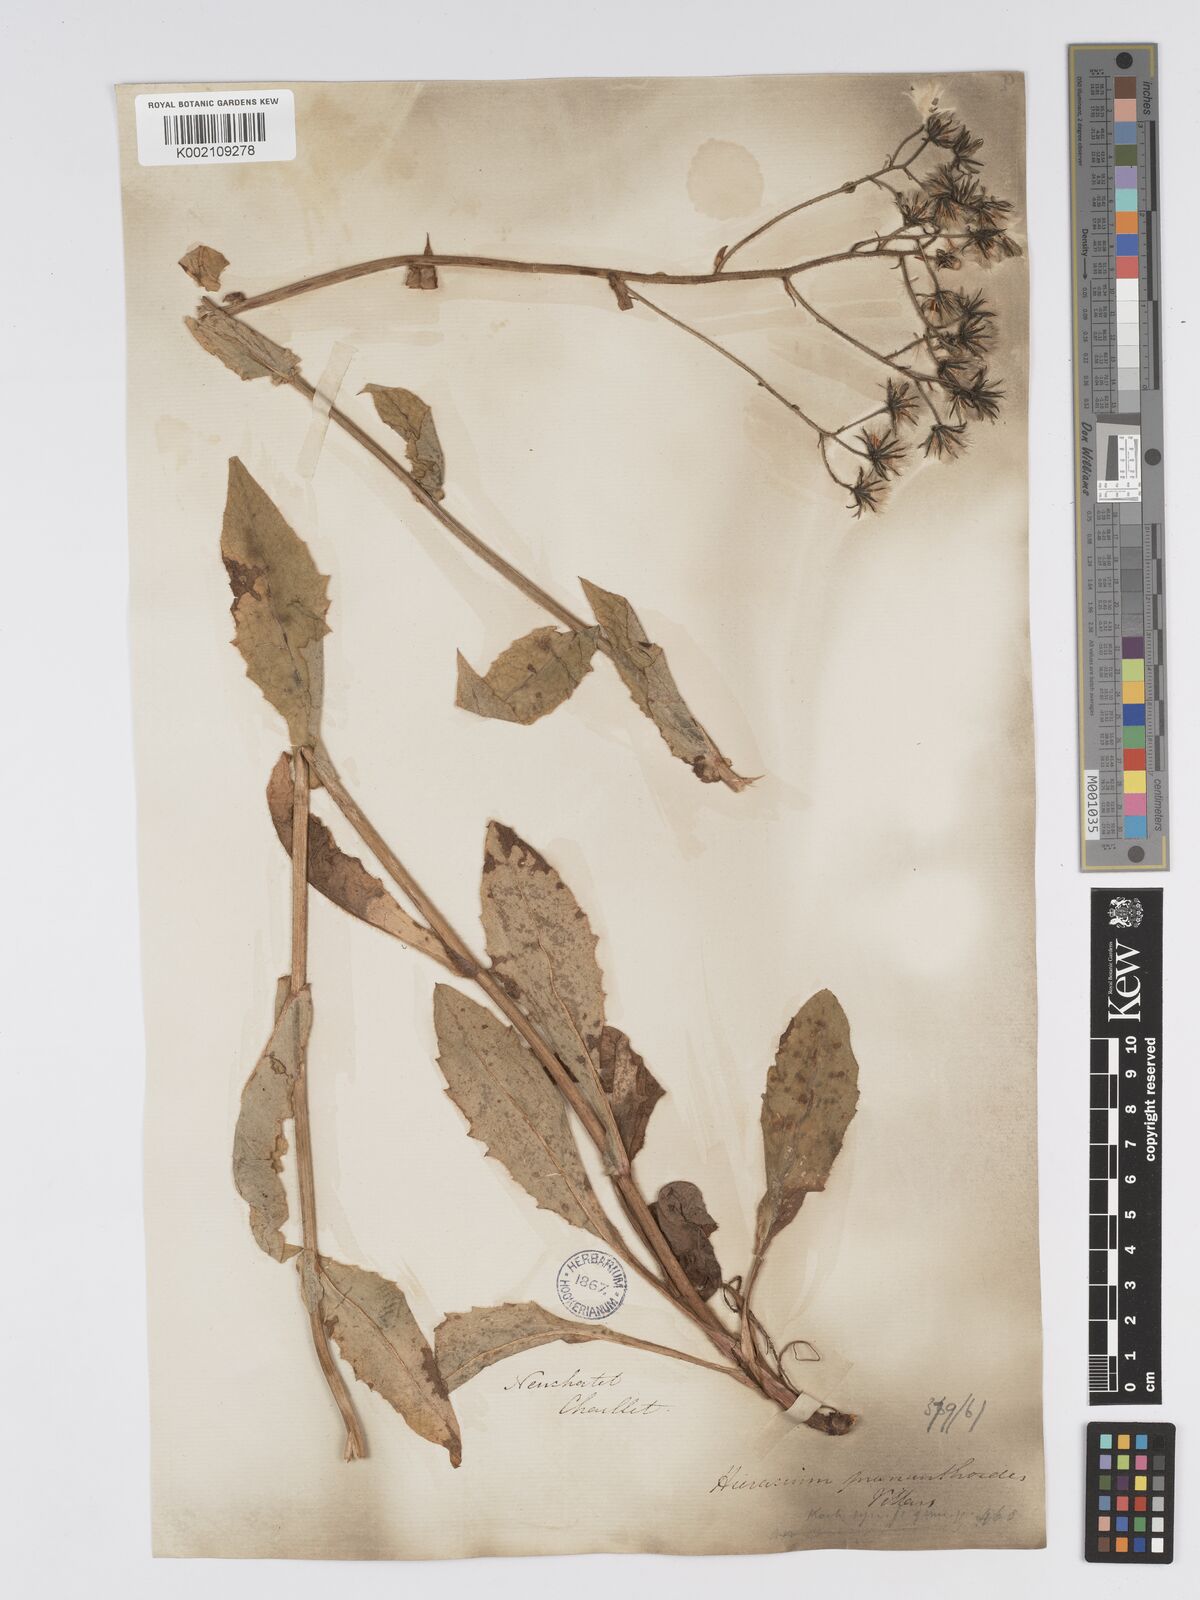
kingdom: Plantae
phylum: Tracheophyta
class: Magnoliopsida
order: Asterales
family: Asteraceae
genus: Hieracium
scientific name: Hieracium lycopifolium
